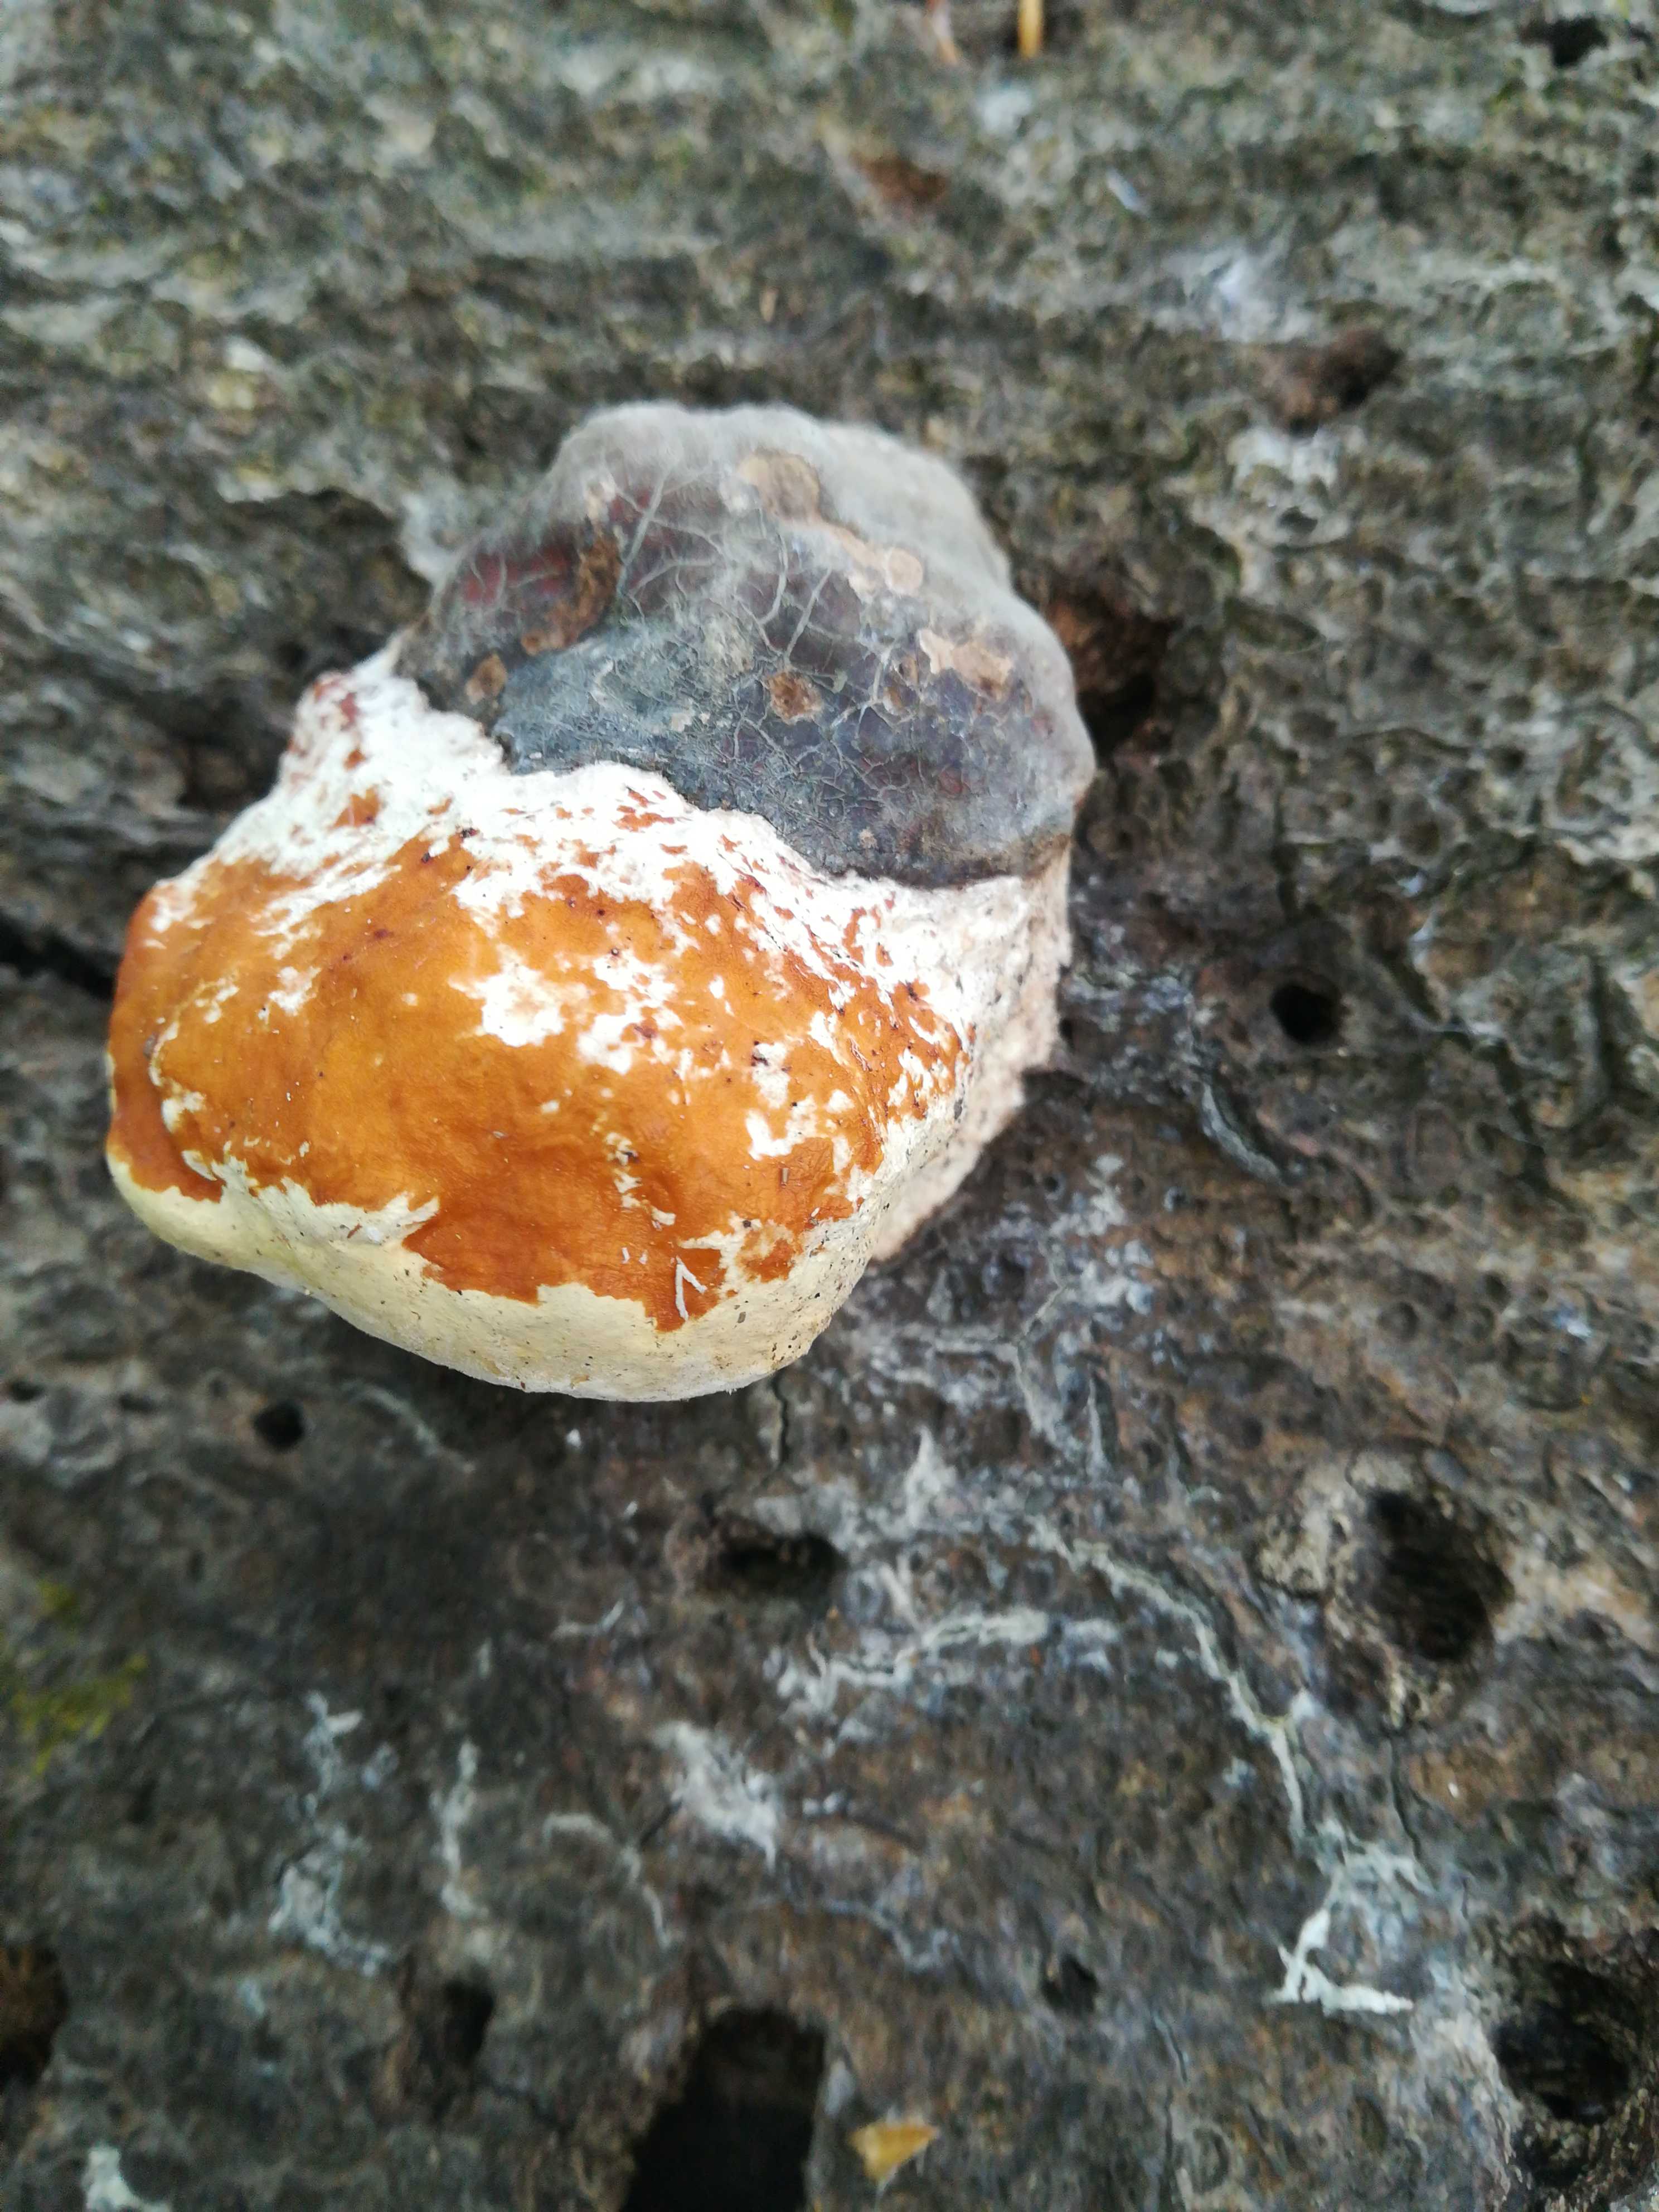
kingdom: Fungi
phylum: Basidiomycota
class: Agaricomycetes
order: Polyporales
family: Fomitopsidaceae
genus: Fomitopsis
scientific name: Fomitopsis pinicola
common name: randbæltet hovporesvamp
